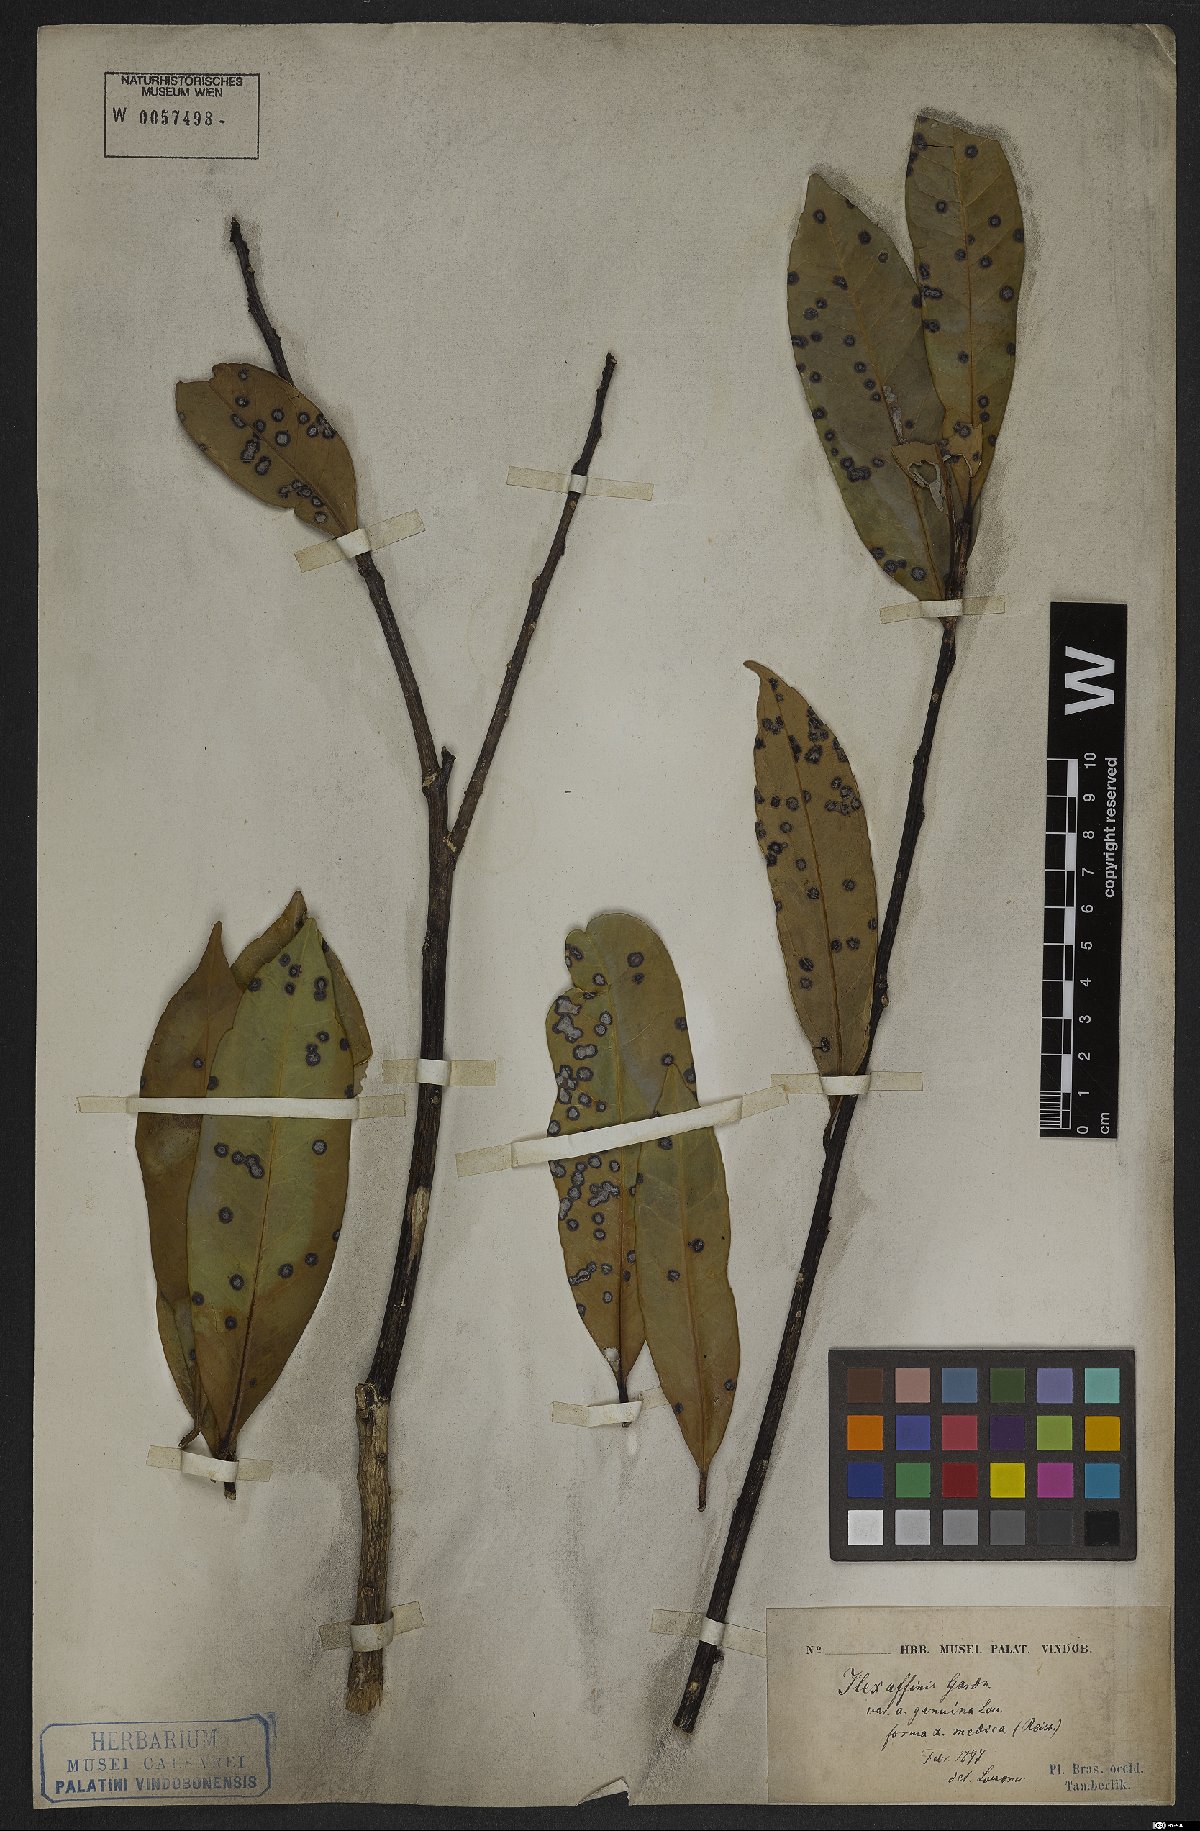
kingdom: Plantae
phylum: Tracheophyta
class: Magnoliopsida
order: Aquifoliales
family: Aquifoliaceae
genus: Ilex
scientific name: Ilex affinis
